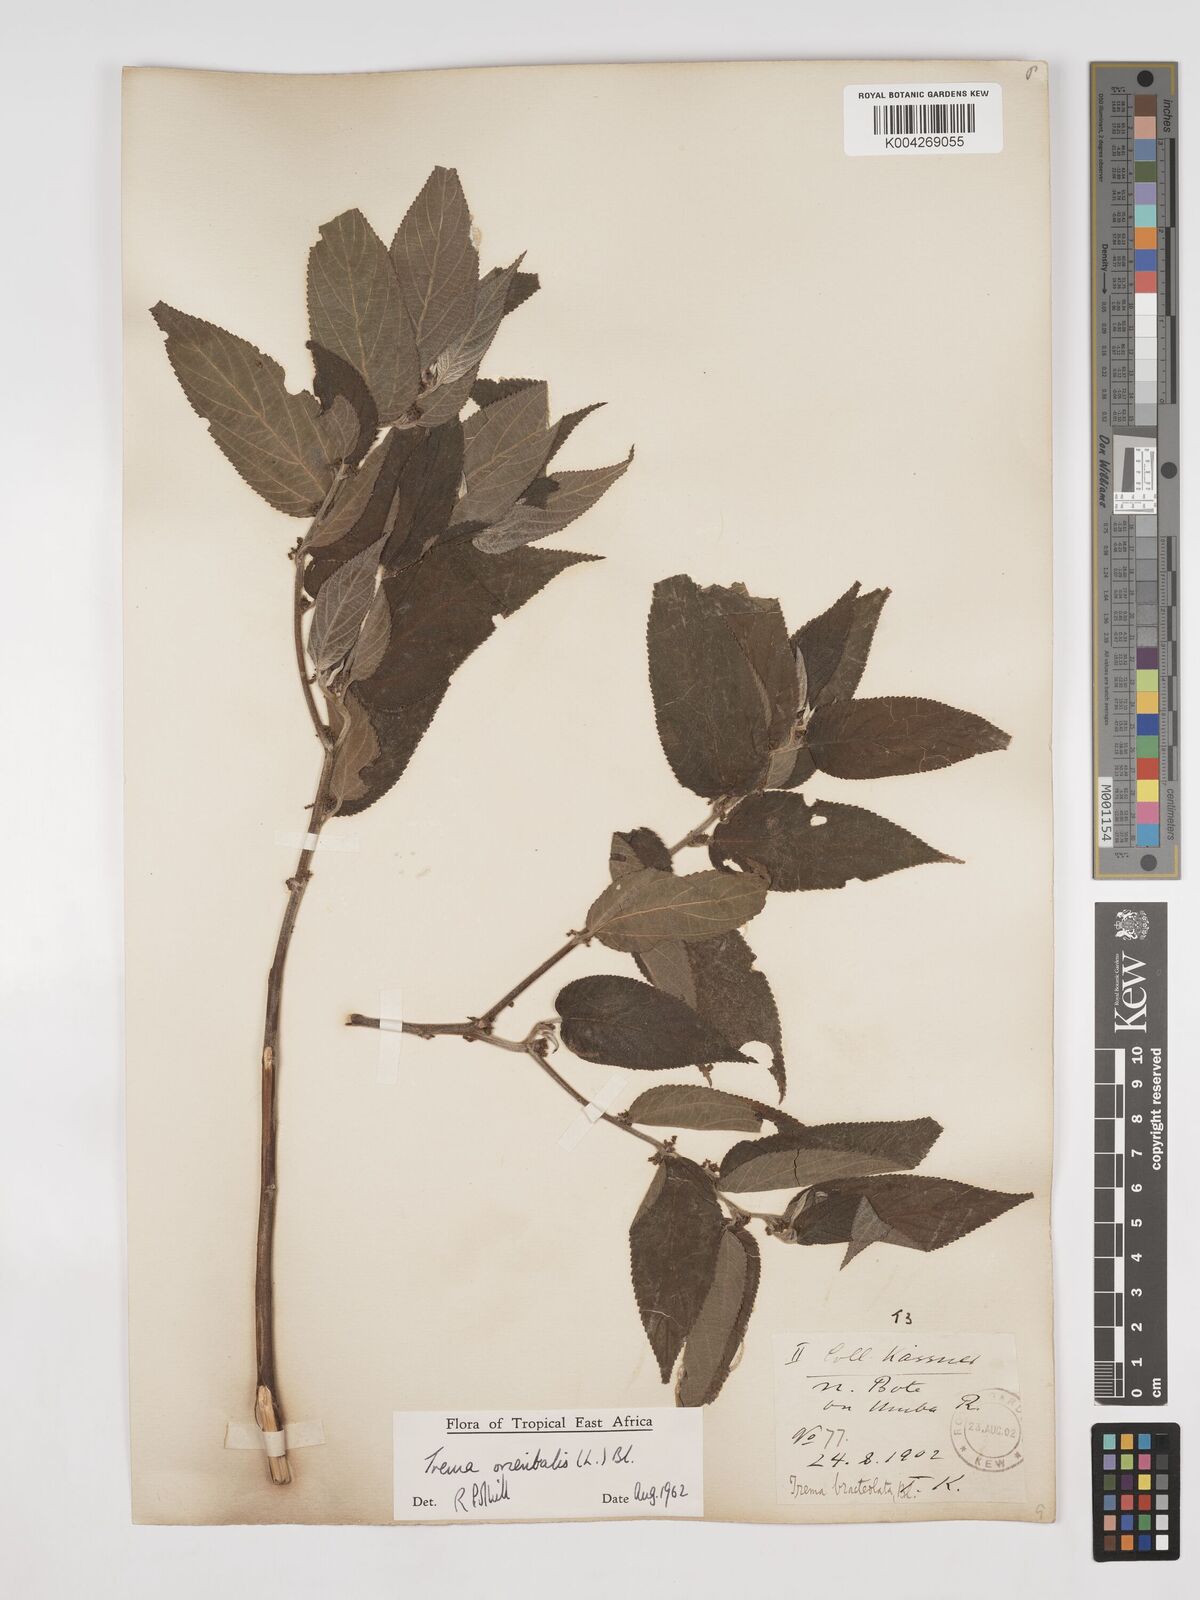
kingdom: Plantae
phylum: Tracheophyta
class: Magnoliopsida
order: Rosales
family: Cannabaceae
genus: Trema
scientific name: Trema orientale
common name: Indian charcoal tree
